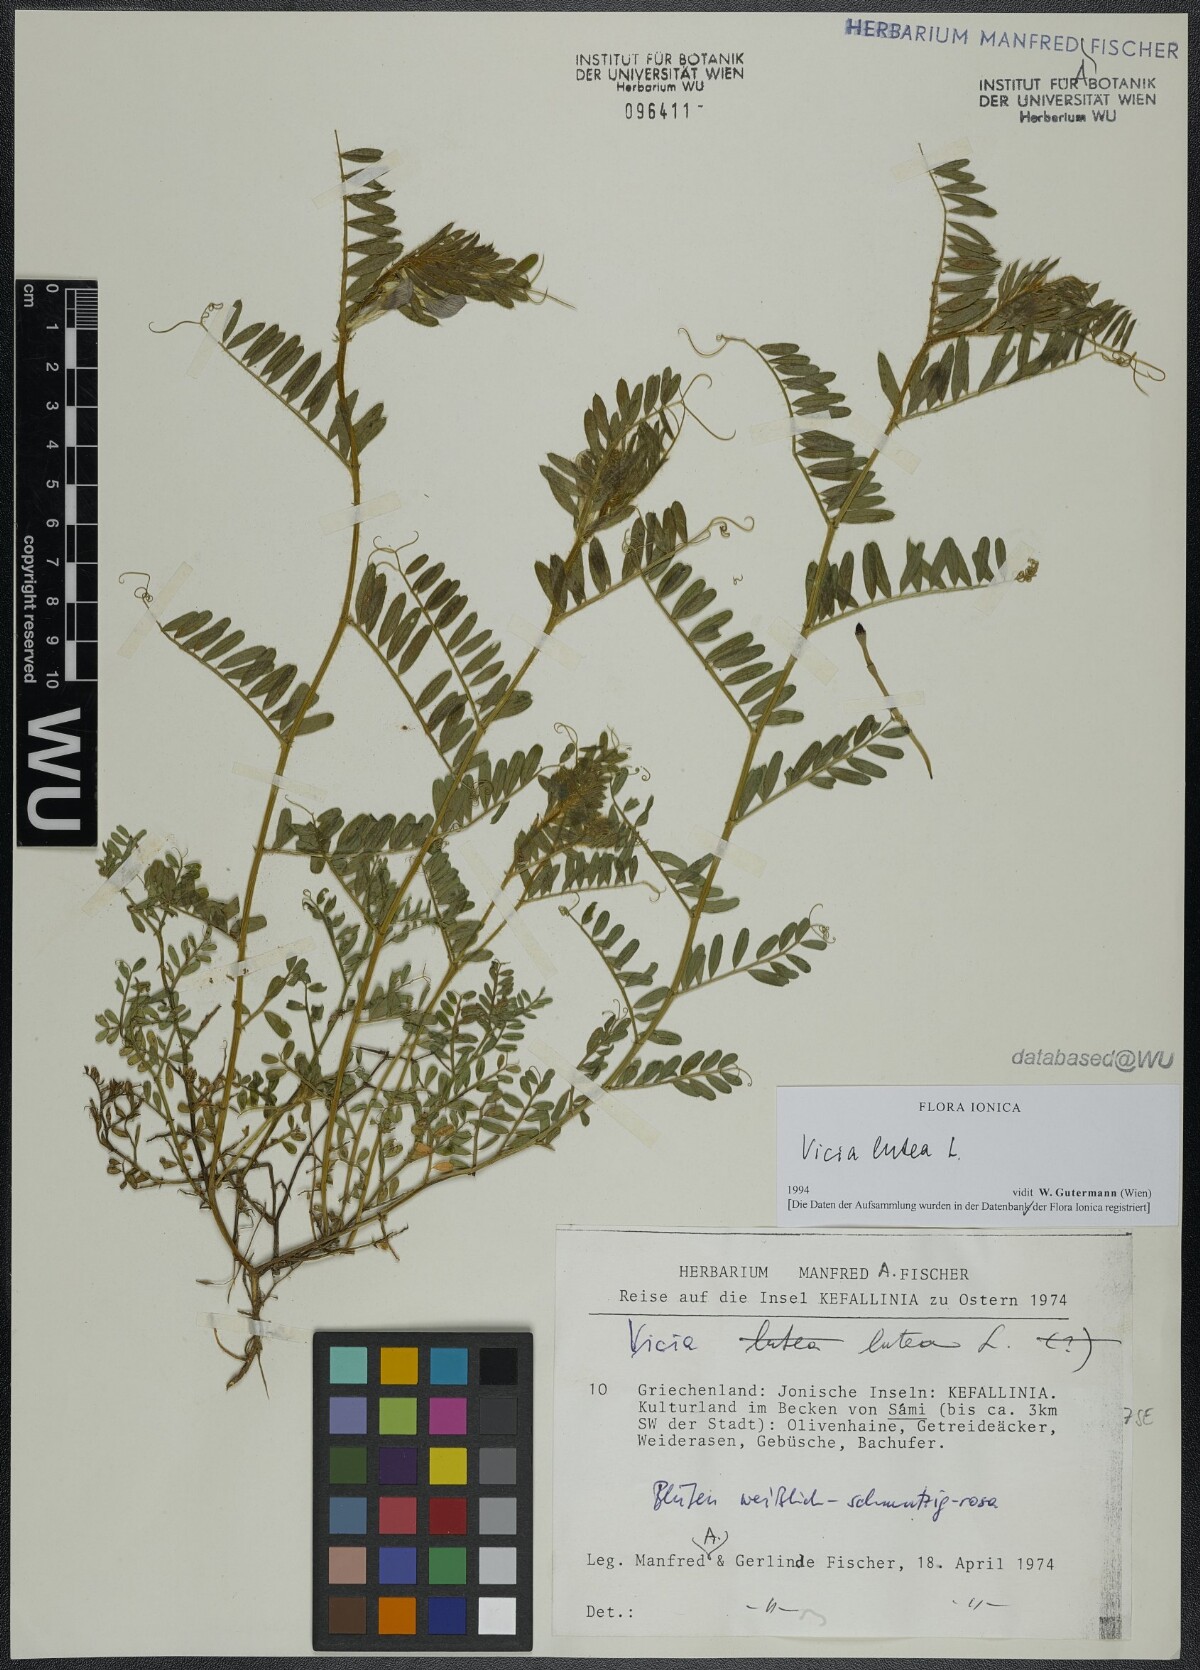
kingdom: Plantae
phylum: Tracheophyta
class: Magnoliopsida
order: Fabales
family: Fabaceae
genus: Vicia
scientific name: Vicia lutea
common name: Smooth yellow vetch
